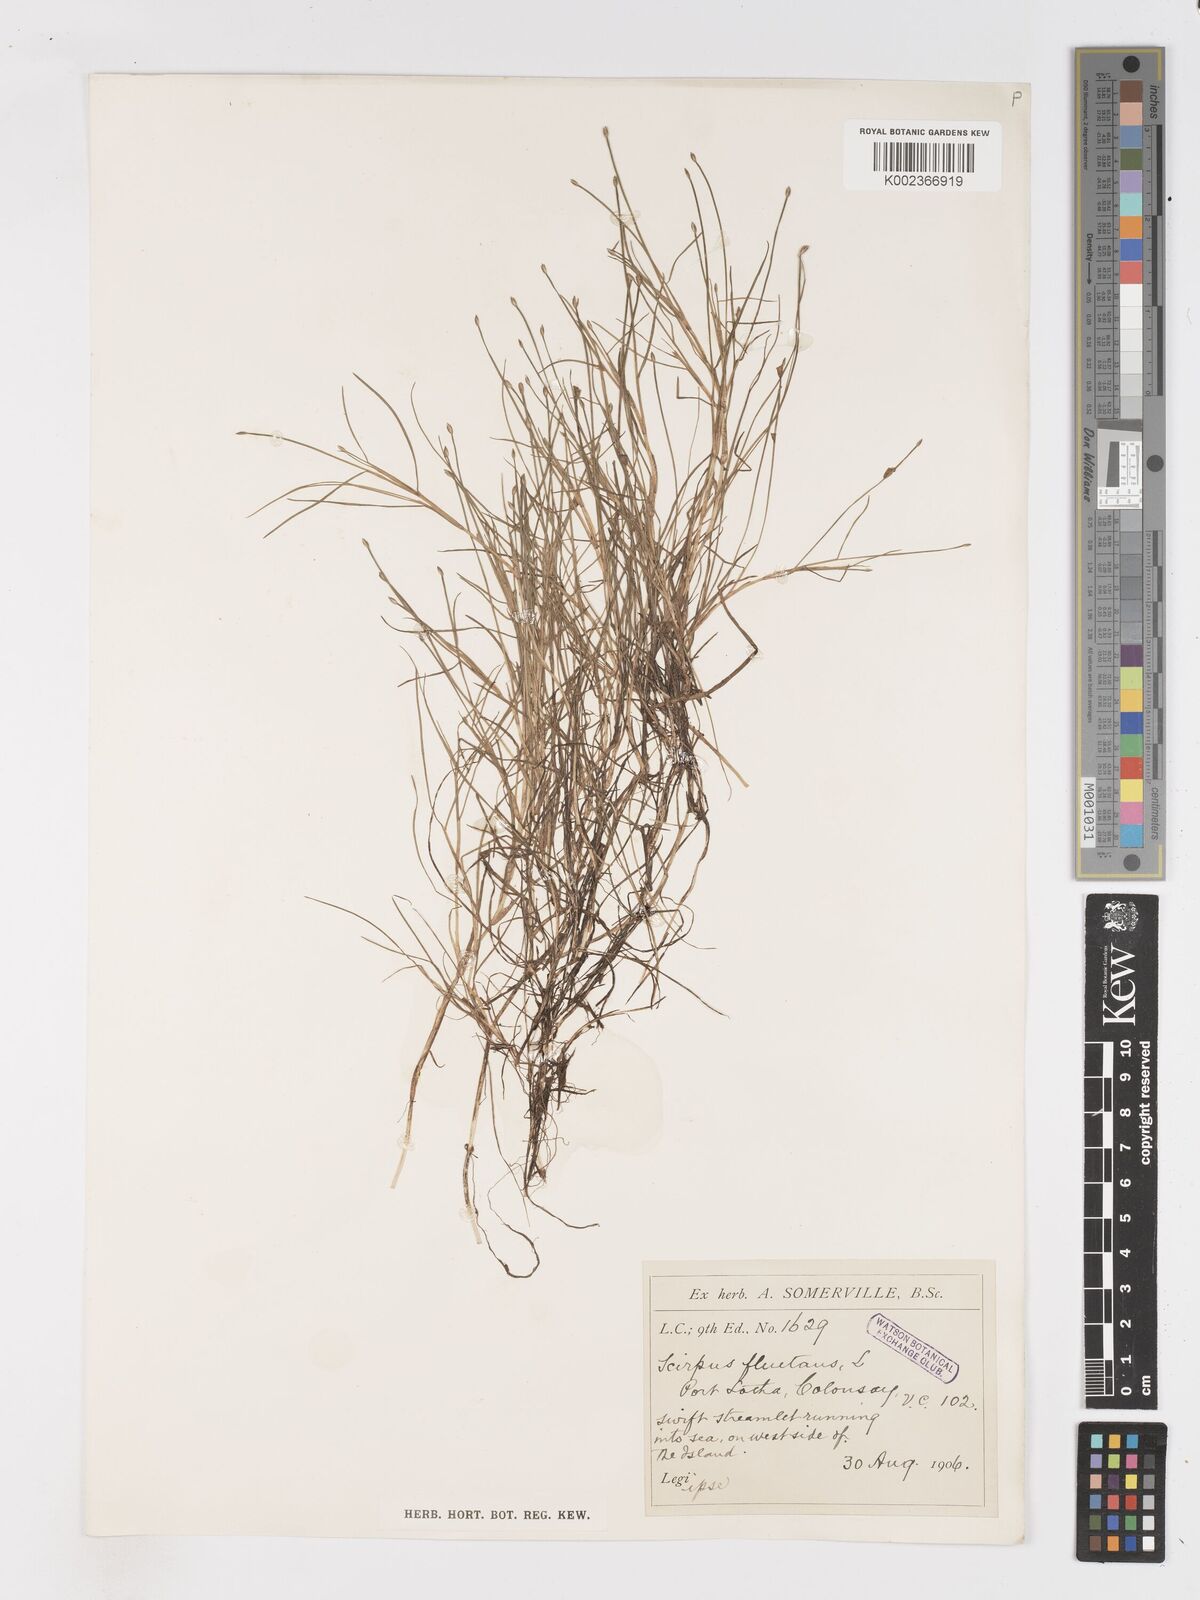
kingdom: Plantae
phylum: Tracheophyta
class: Liliopsida
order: Poales
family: Cyperaceae
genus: Isolepis
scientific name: Isolepis fluitans
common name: Floating club-rush
